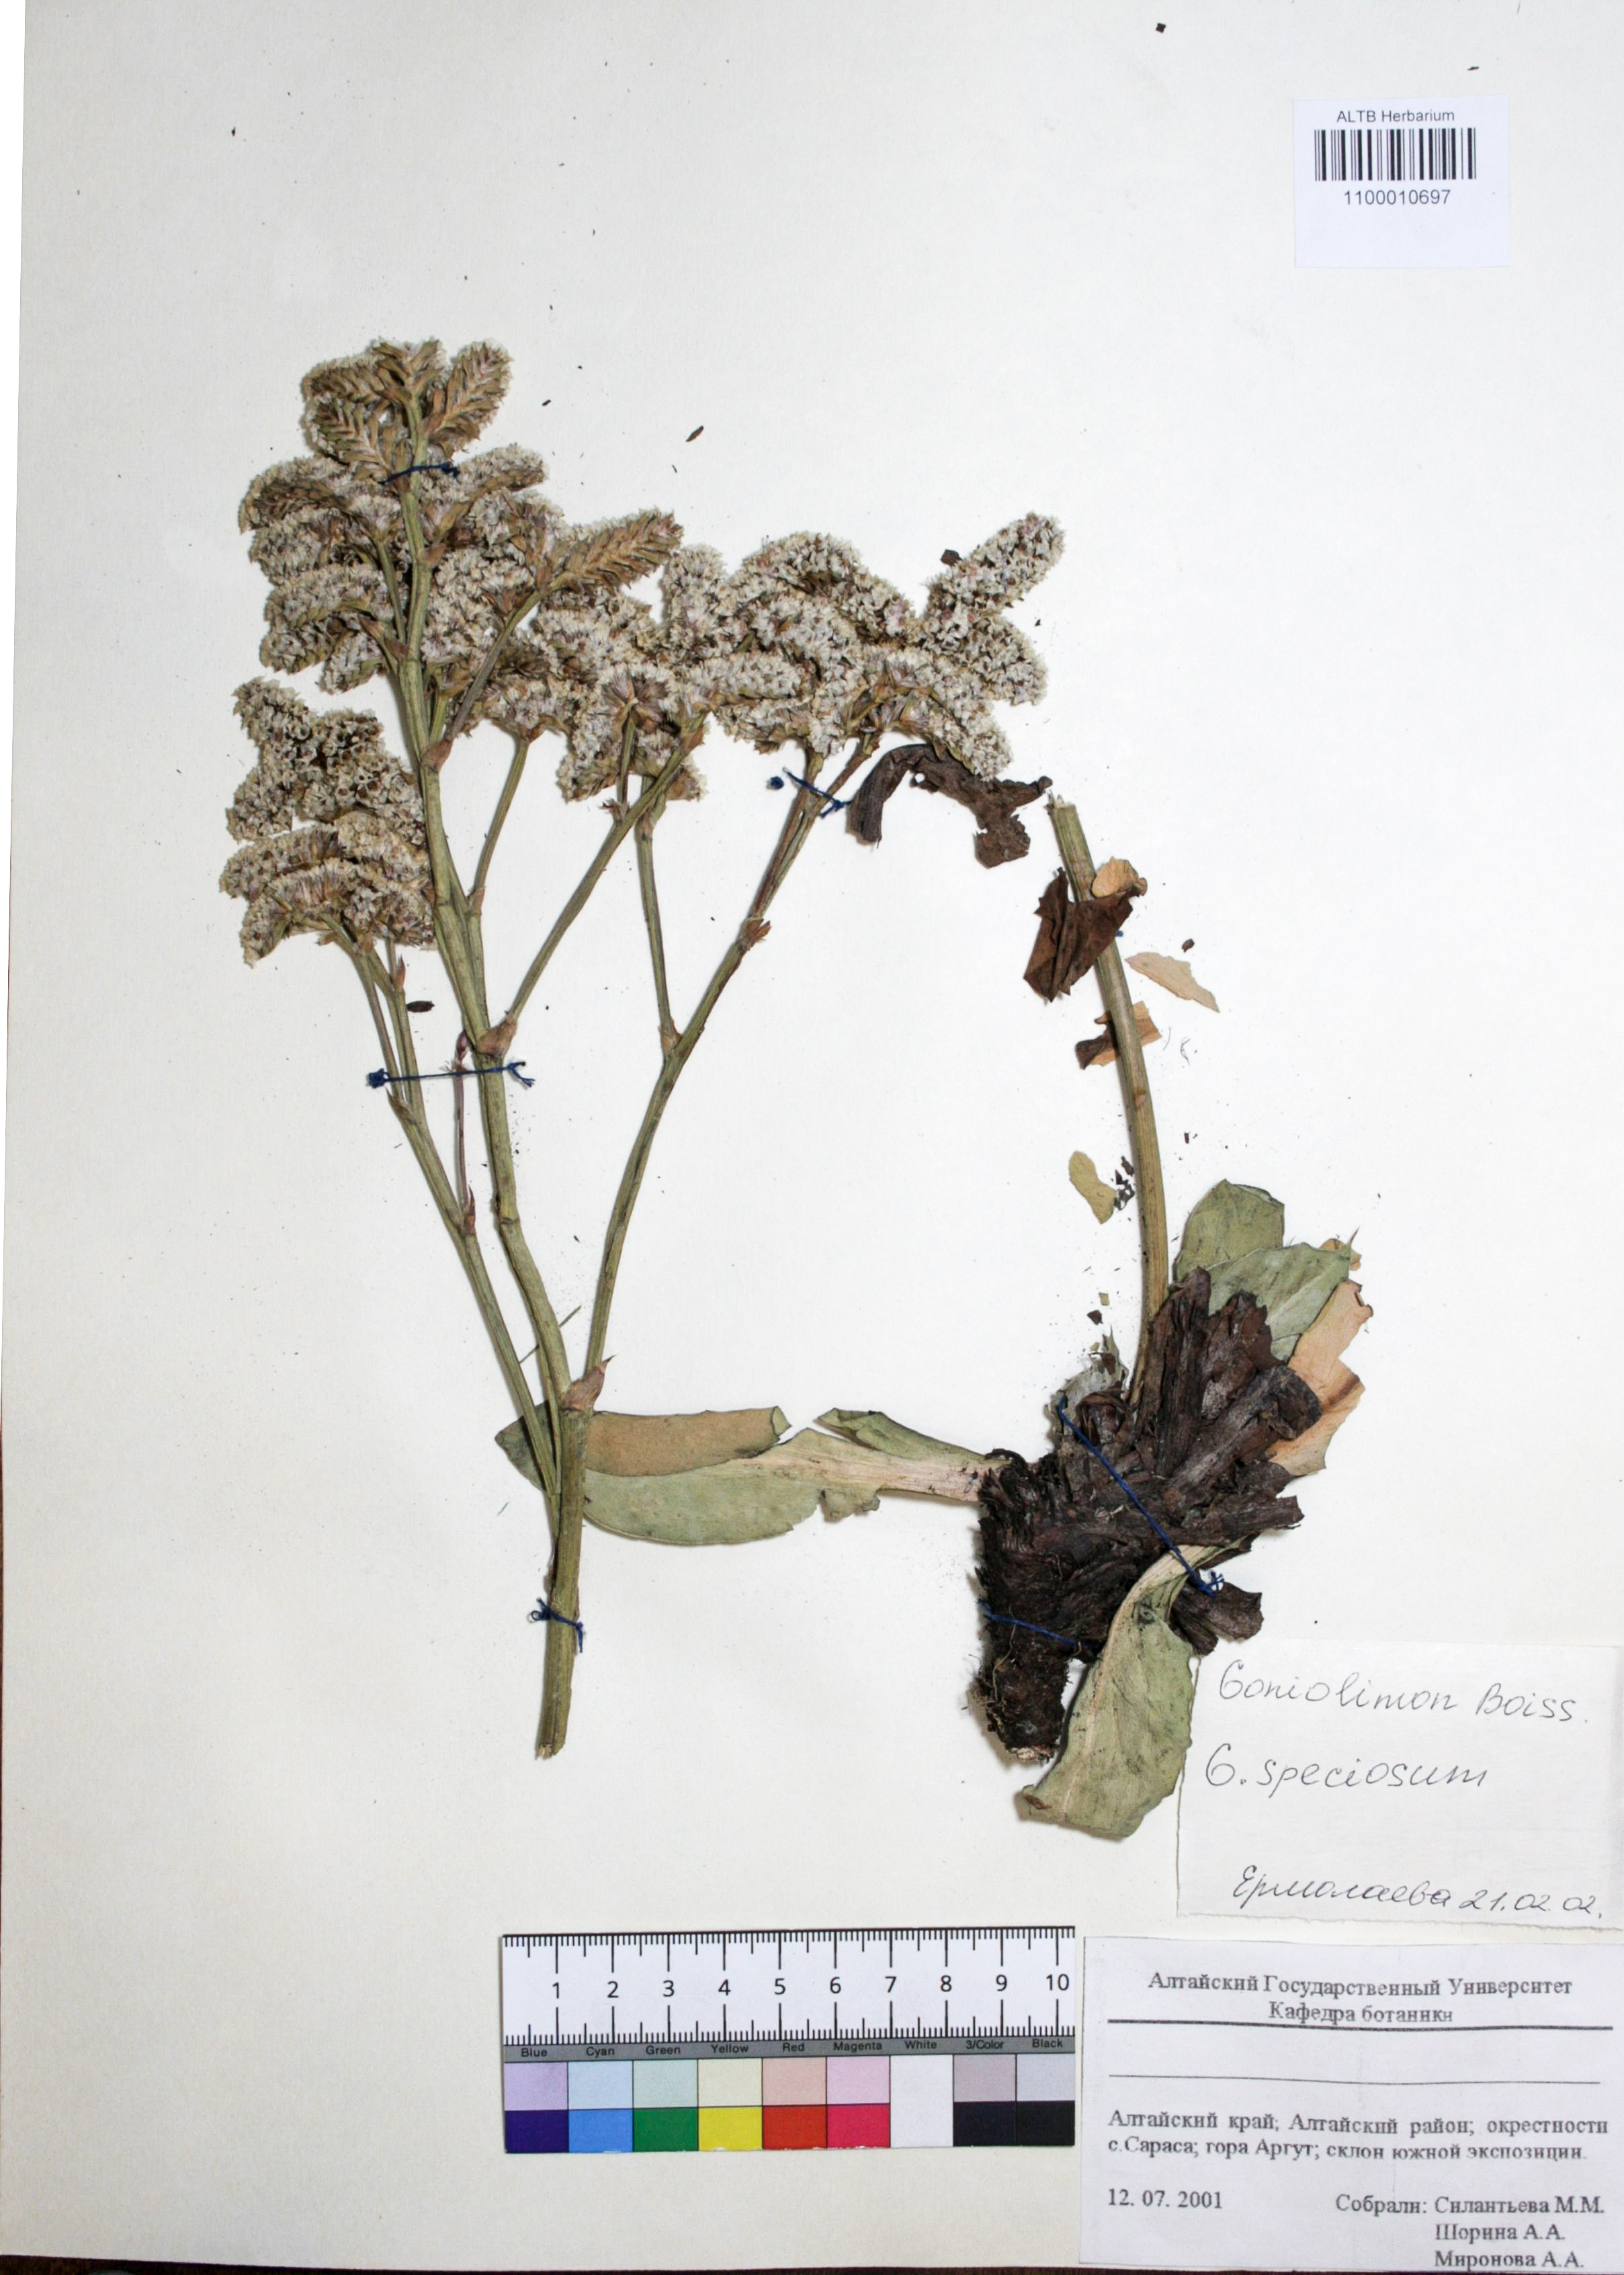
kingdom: Plantae
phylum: Tracheophyta
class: Magnoliopsida
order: Caryophyllales
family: Plumbaginaceae
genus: Goniolimon
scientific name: Goniolimon speciosum
